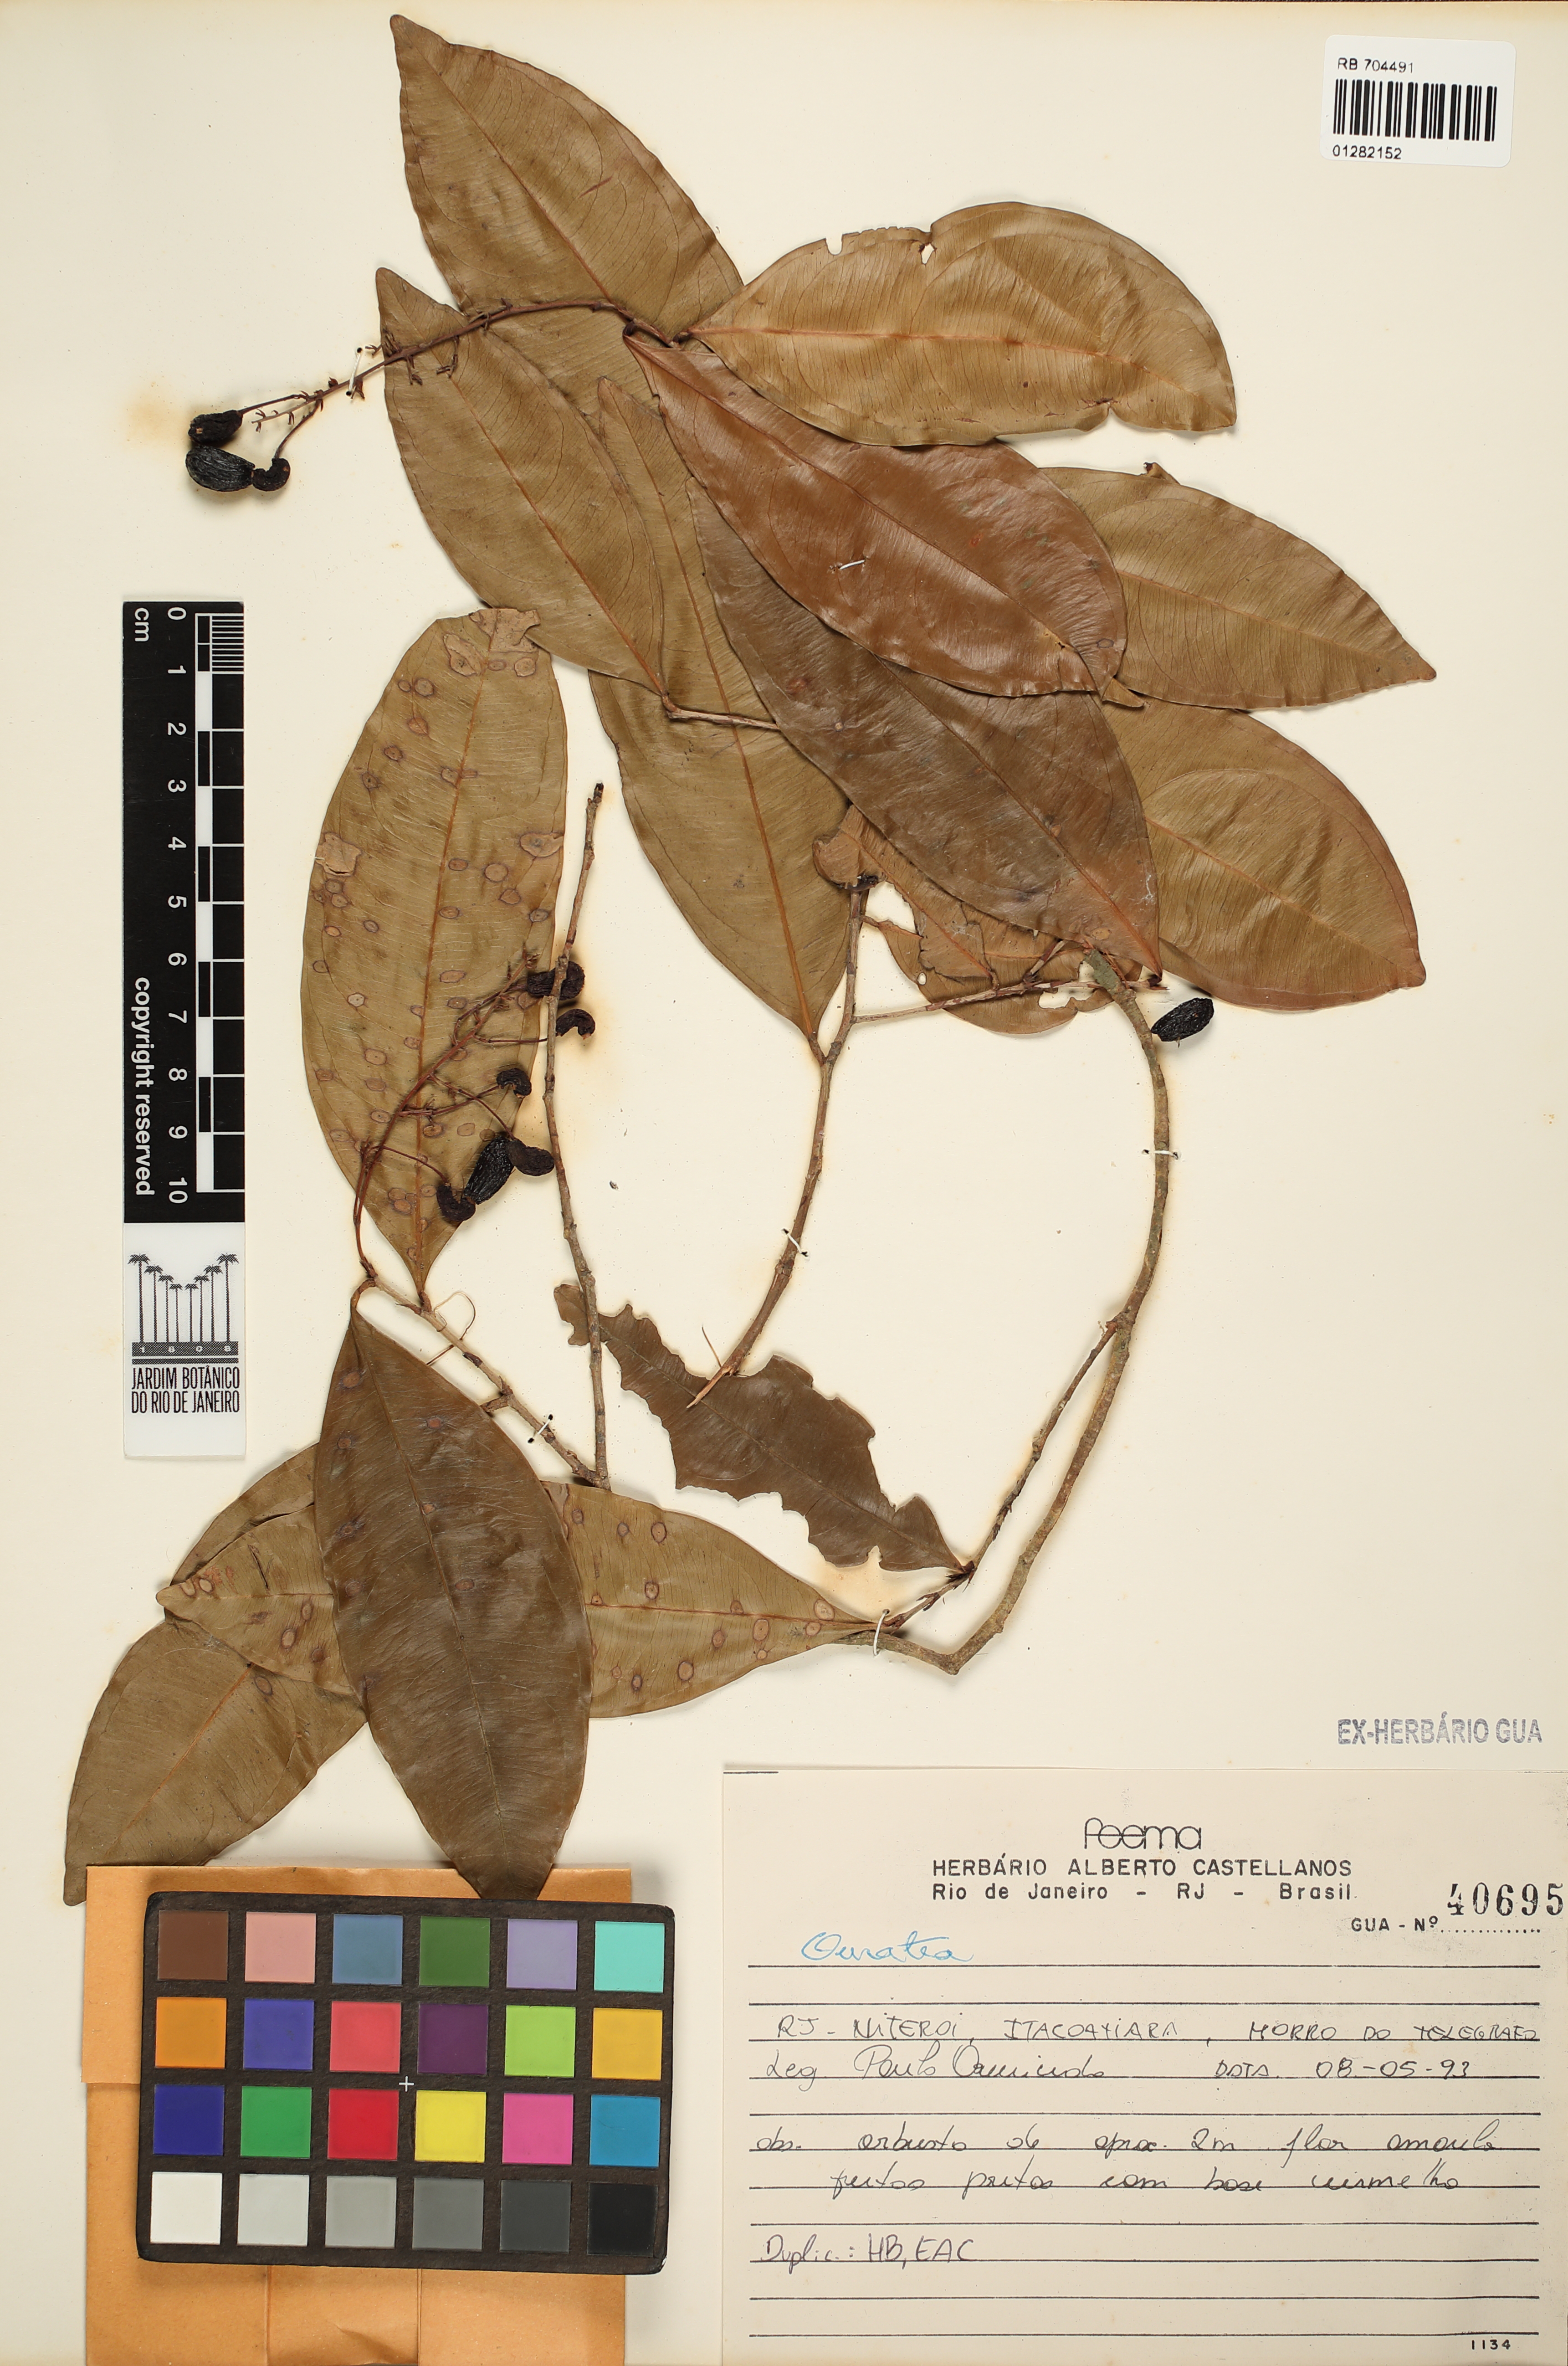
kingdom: Plantae
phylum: Tracheophyta
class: Magnoliopsida
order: Malpighiales
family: Ochnaceae
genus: Ouratea
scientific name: Ouratea
